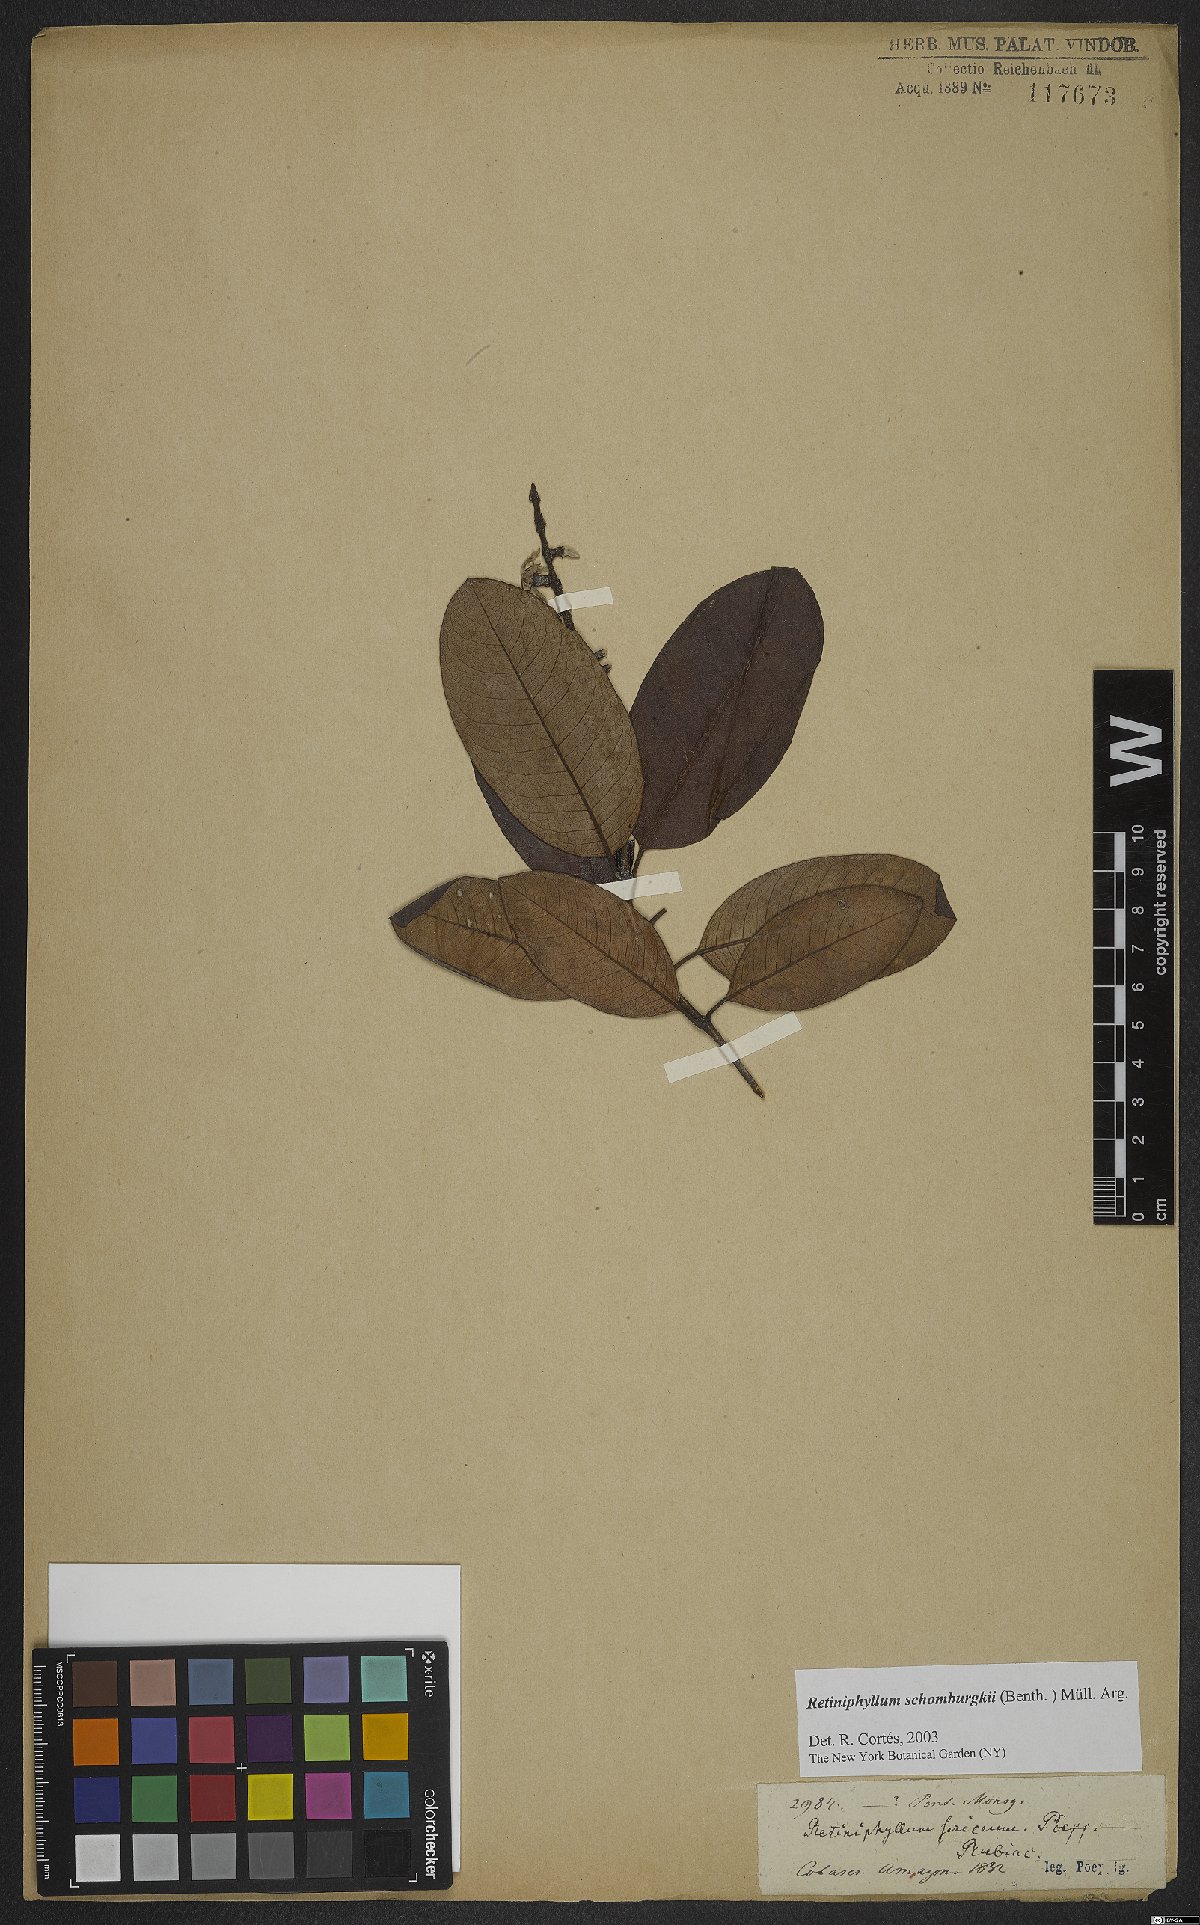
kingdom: Plantae
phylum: Tracheophyta
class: Magnoliopsida
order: Gentianales
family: Rubiaceae
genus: Retiniphyllum
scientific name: Retiniphyllum schomburgkii
